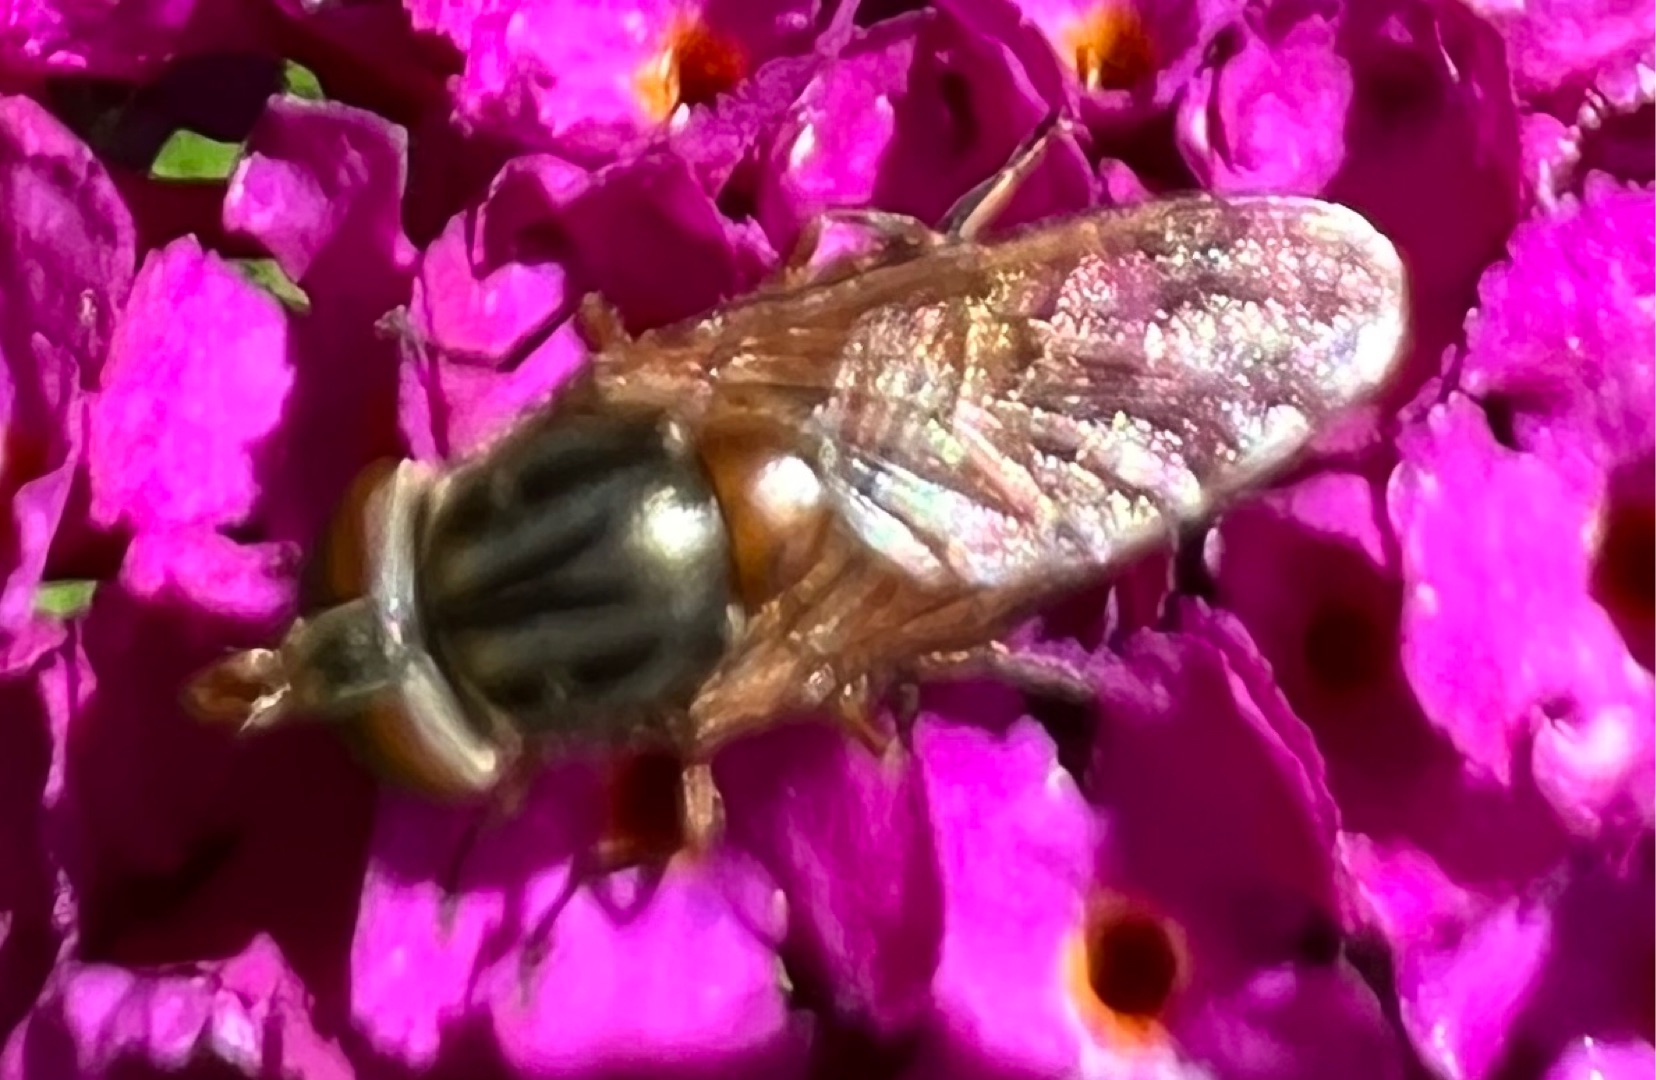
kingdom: Animalia
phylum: Arthropoda
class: Insecta
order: Diptera
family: Syrphidae
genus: Rhingia
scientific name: Rhingia campestris
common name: Mark-snabelsvirreflue
